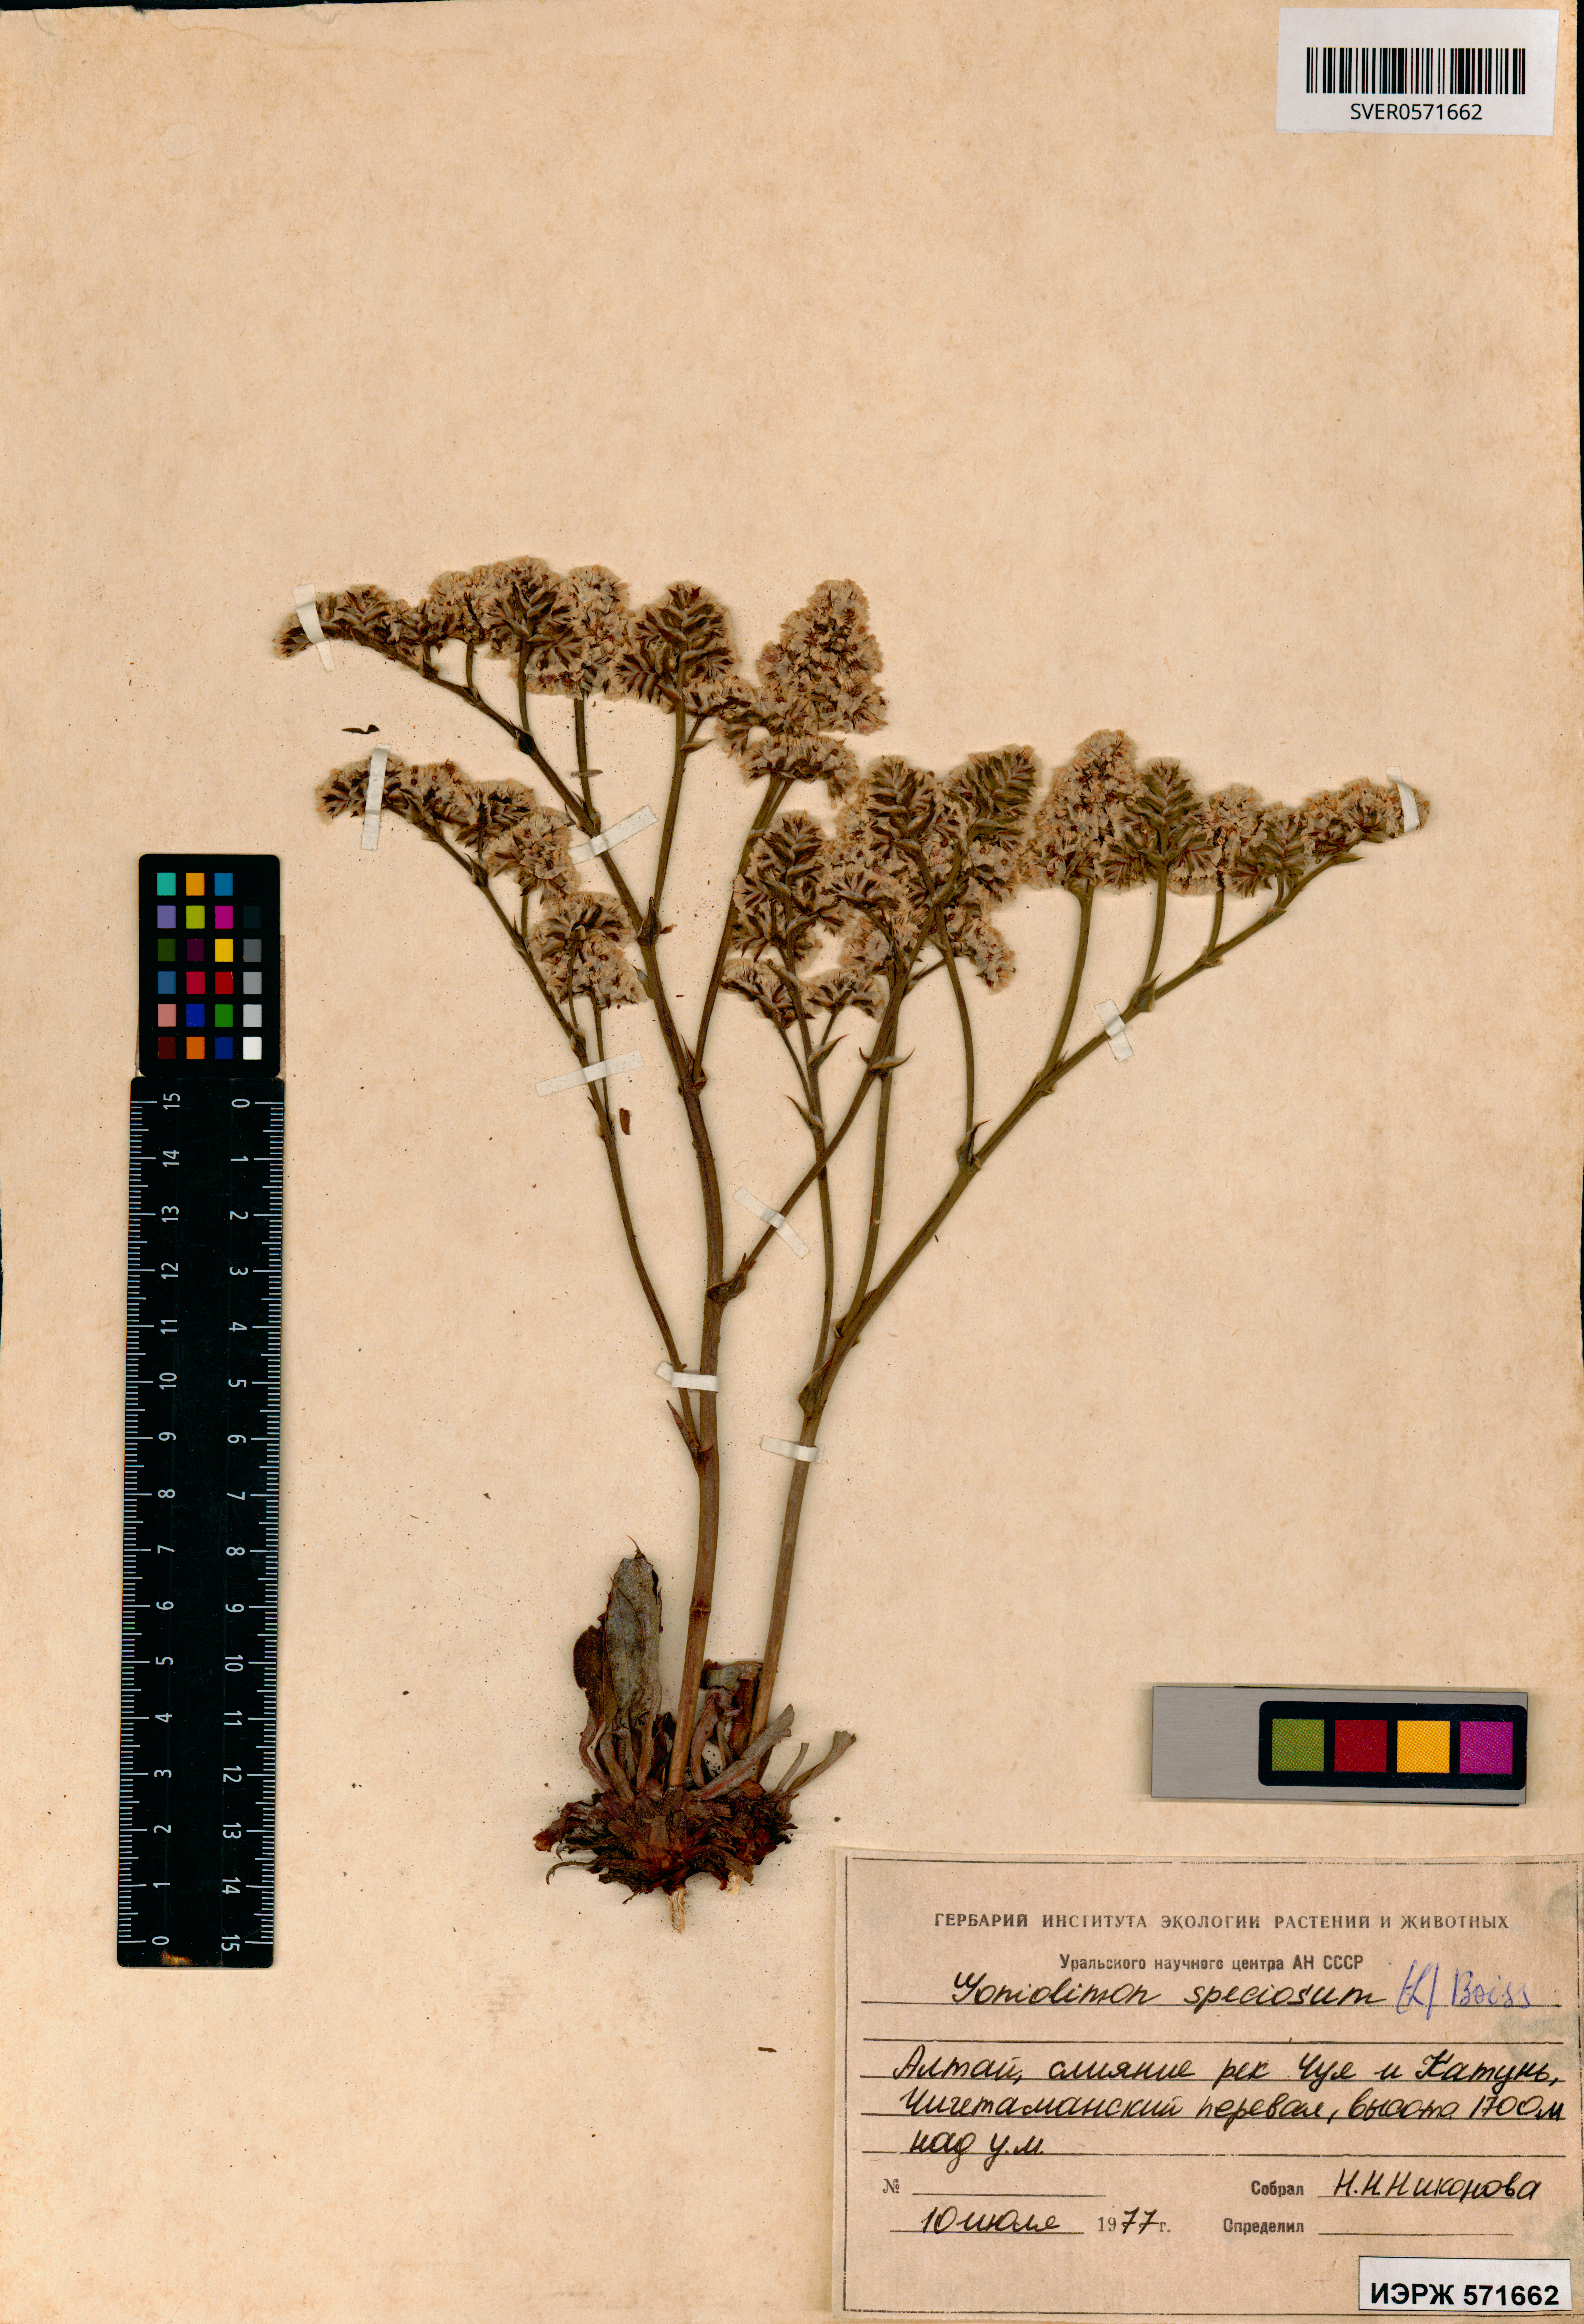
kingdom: Plantae
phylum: Tracheophyta
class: Magnoliopsida
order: Caryophyllales
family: Plumbaginaceae
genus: Goniolimon
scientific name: Goniolimon speciosum
